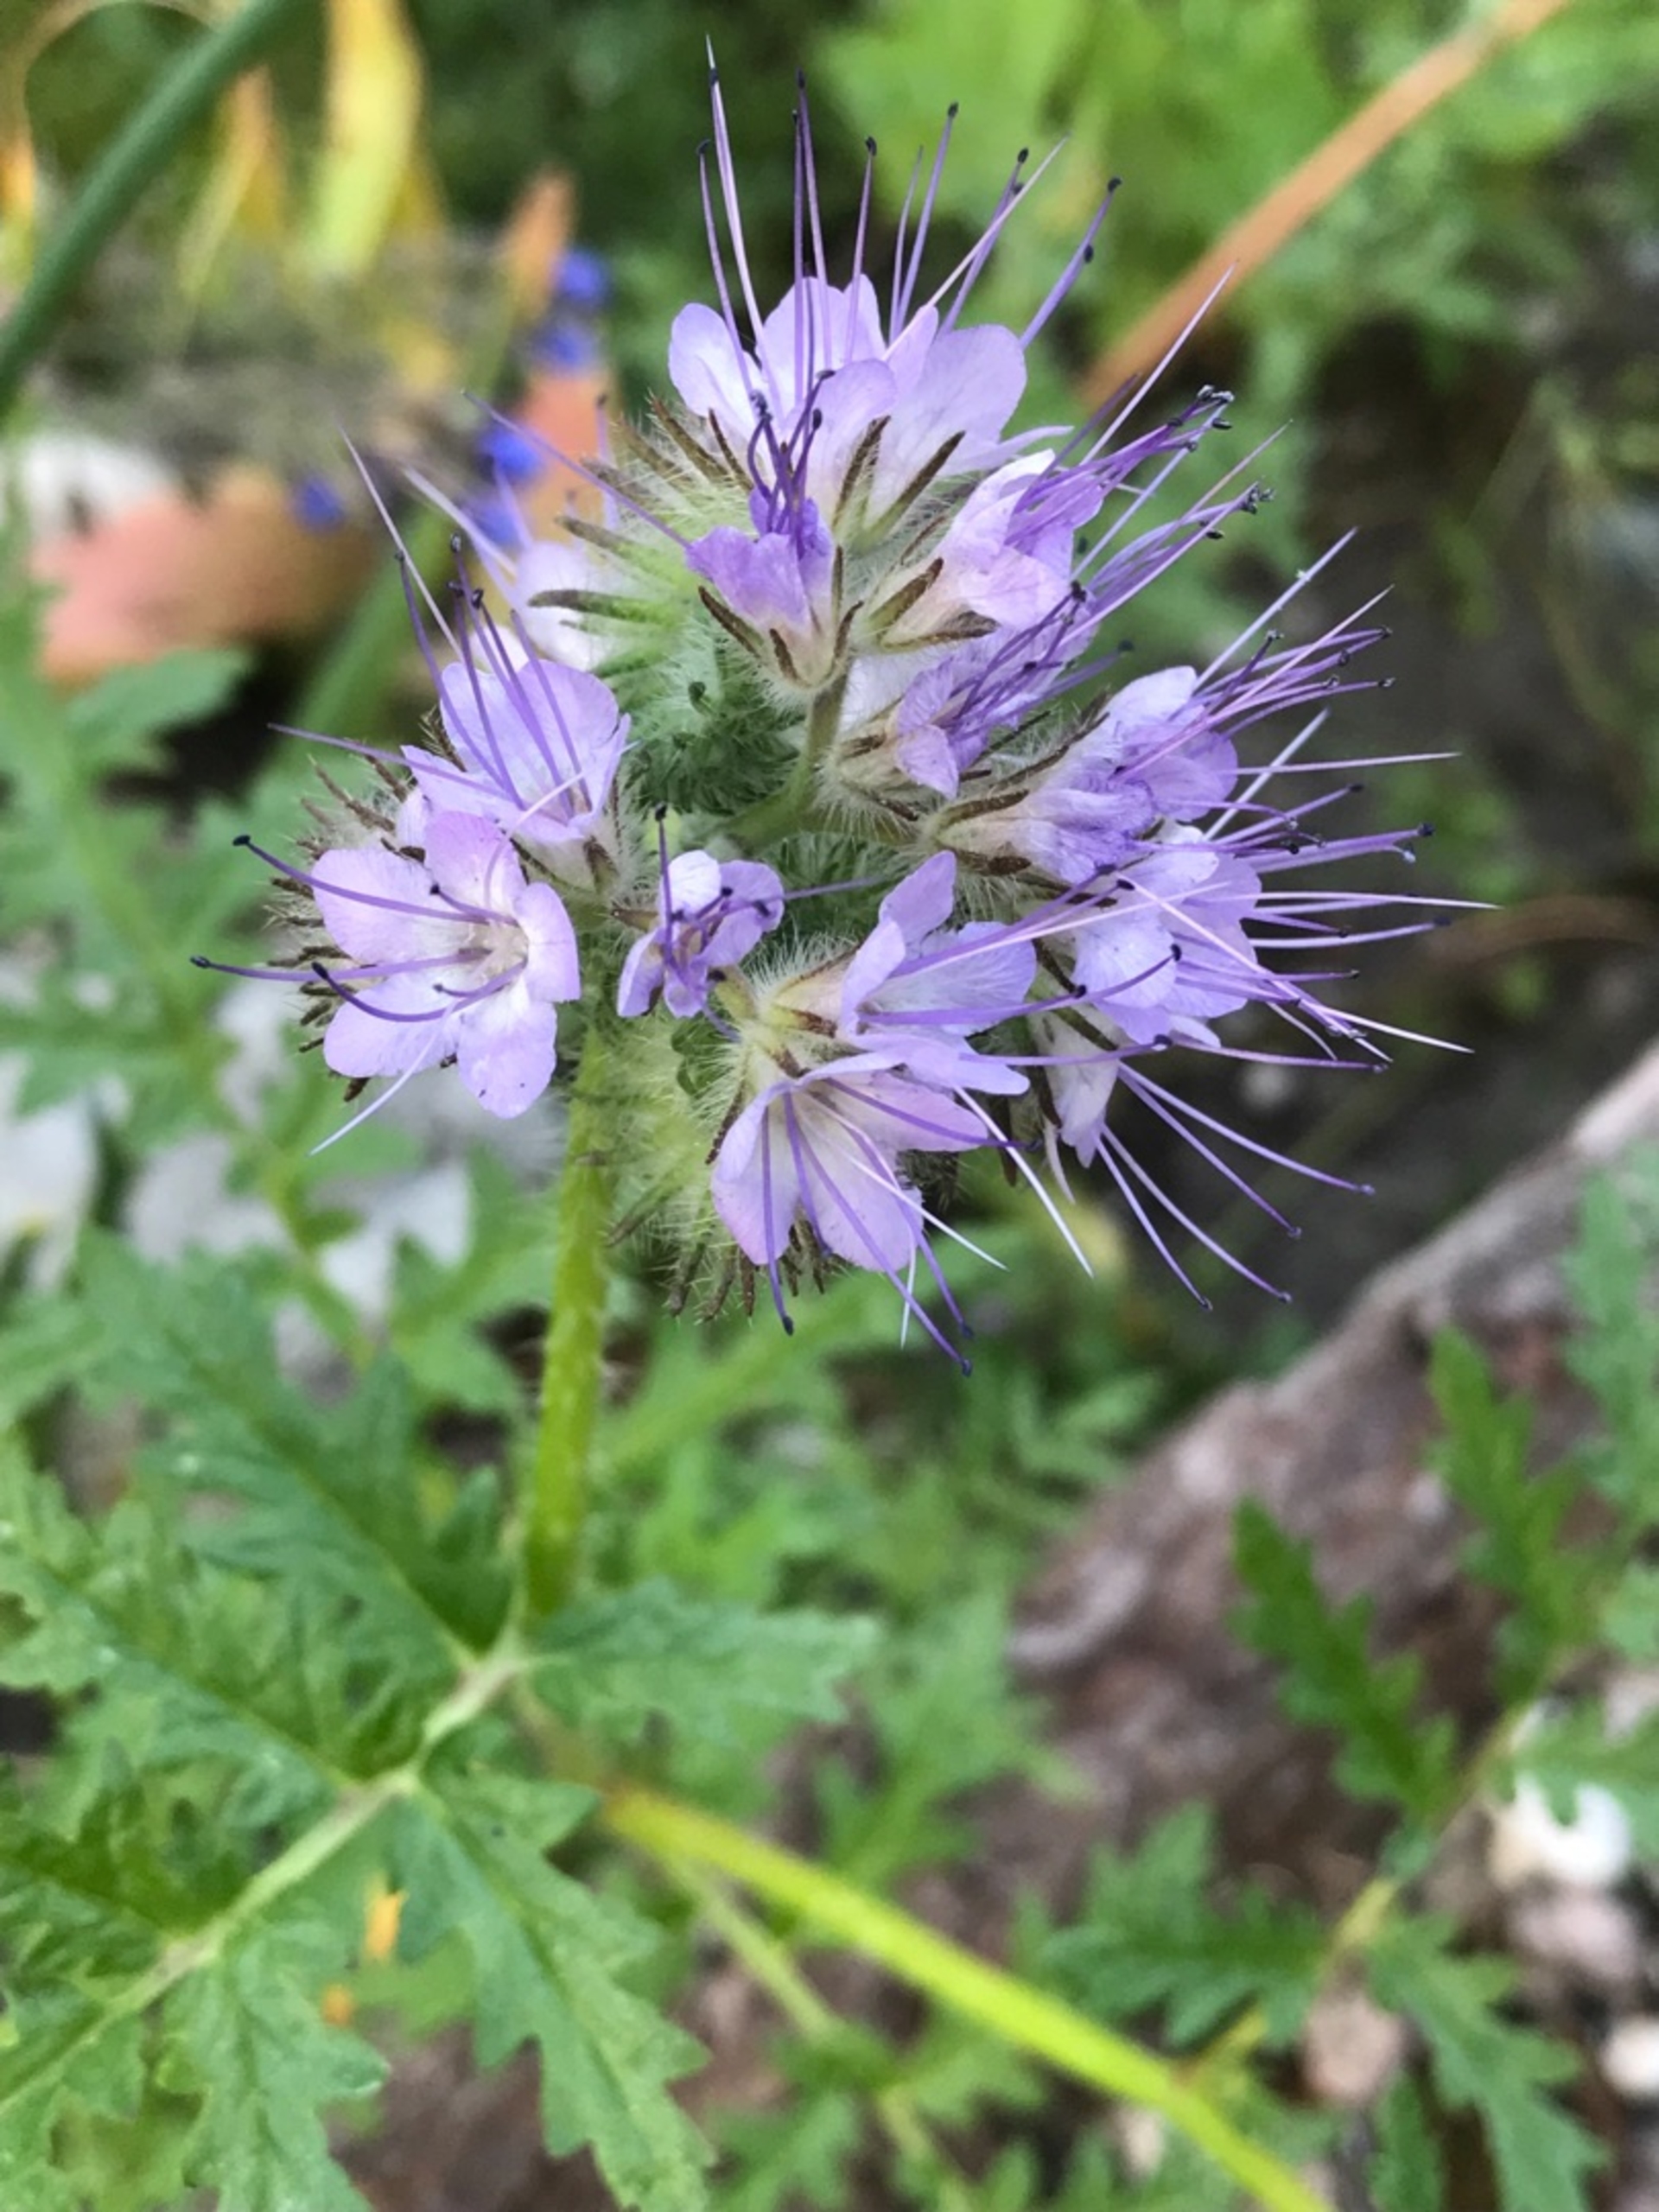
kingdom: Plantae
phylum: Tracheophyta
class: Magnoliopsida
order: Boraginales
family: Hydrophyllaceae
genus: Phacelia
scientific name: Phacelia tanacetifolia
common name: Honningurt
